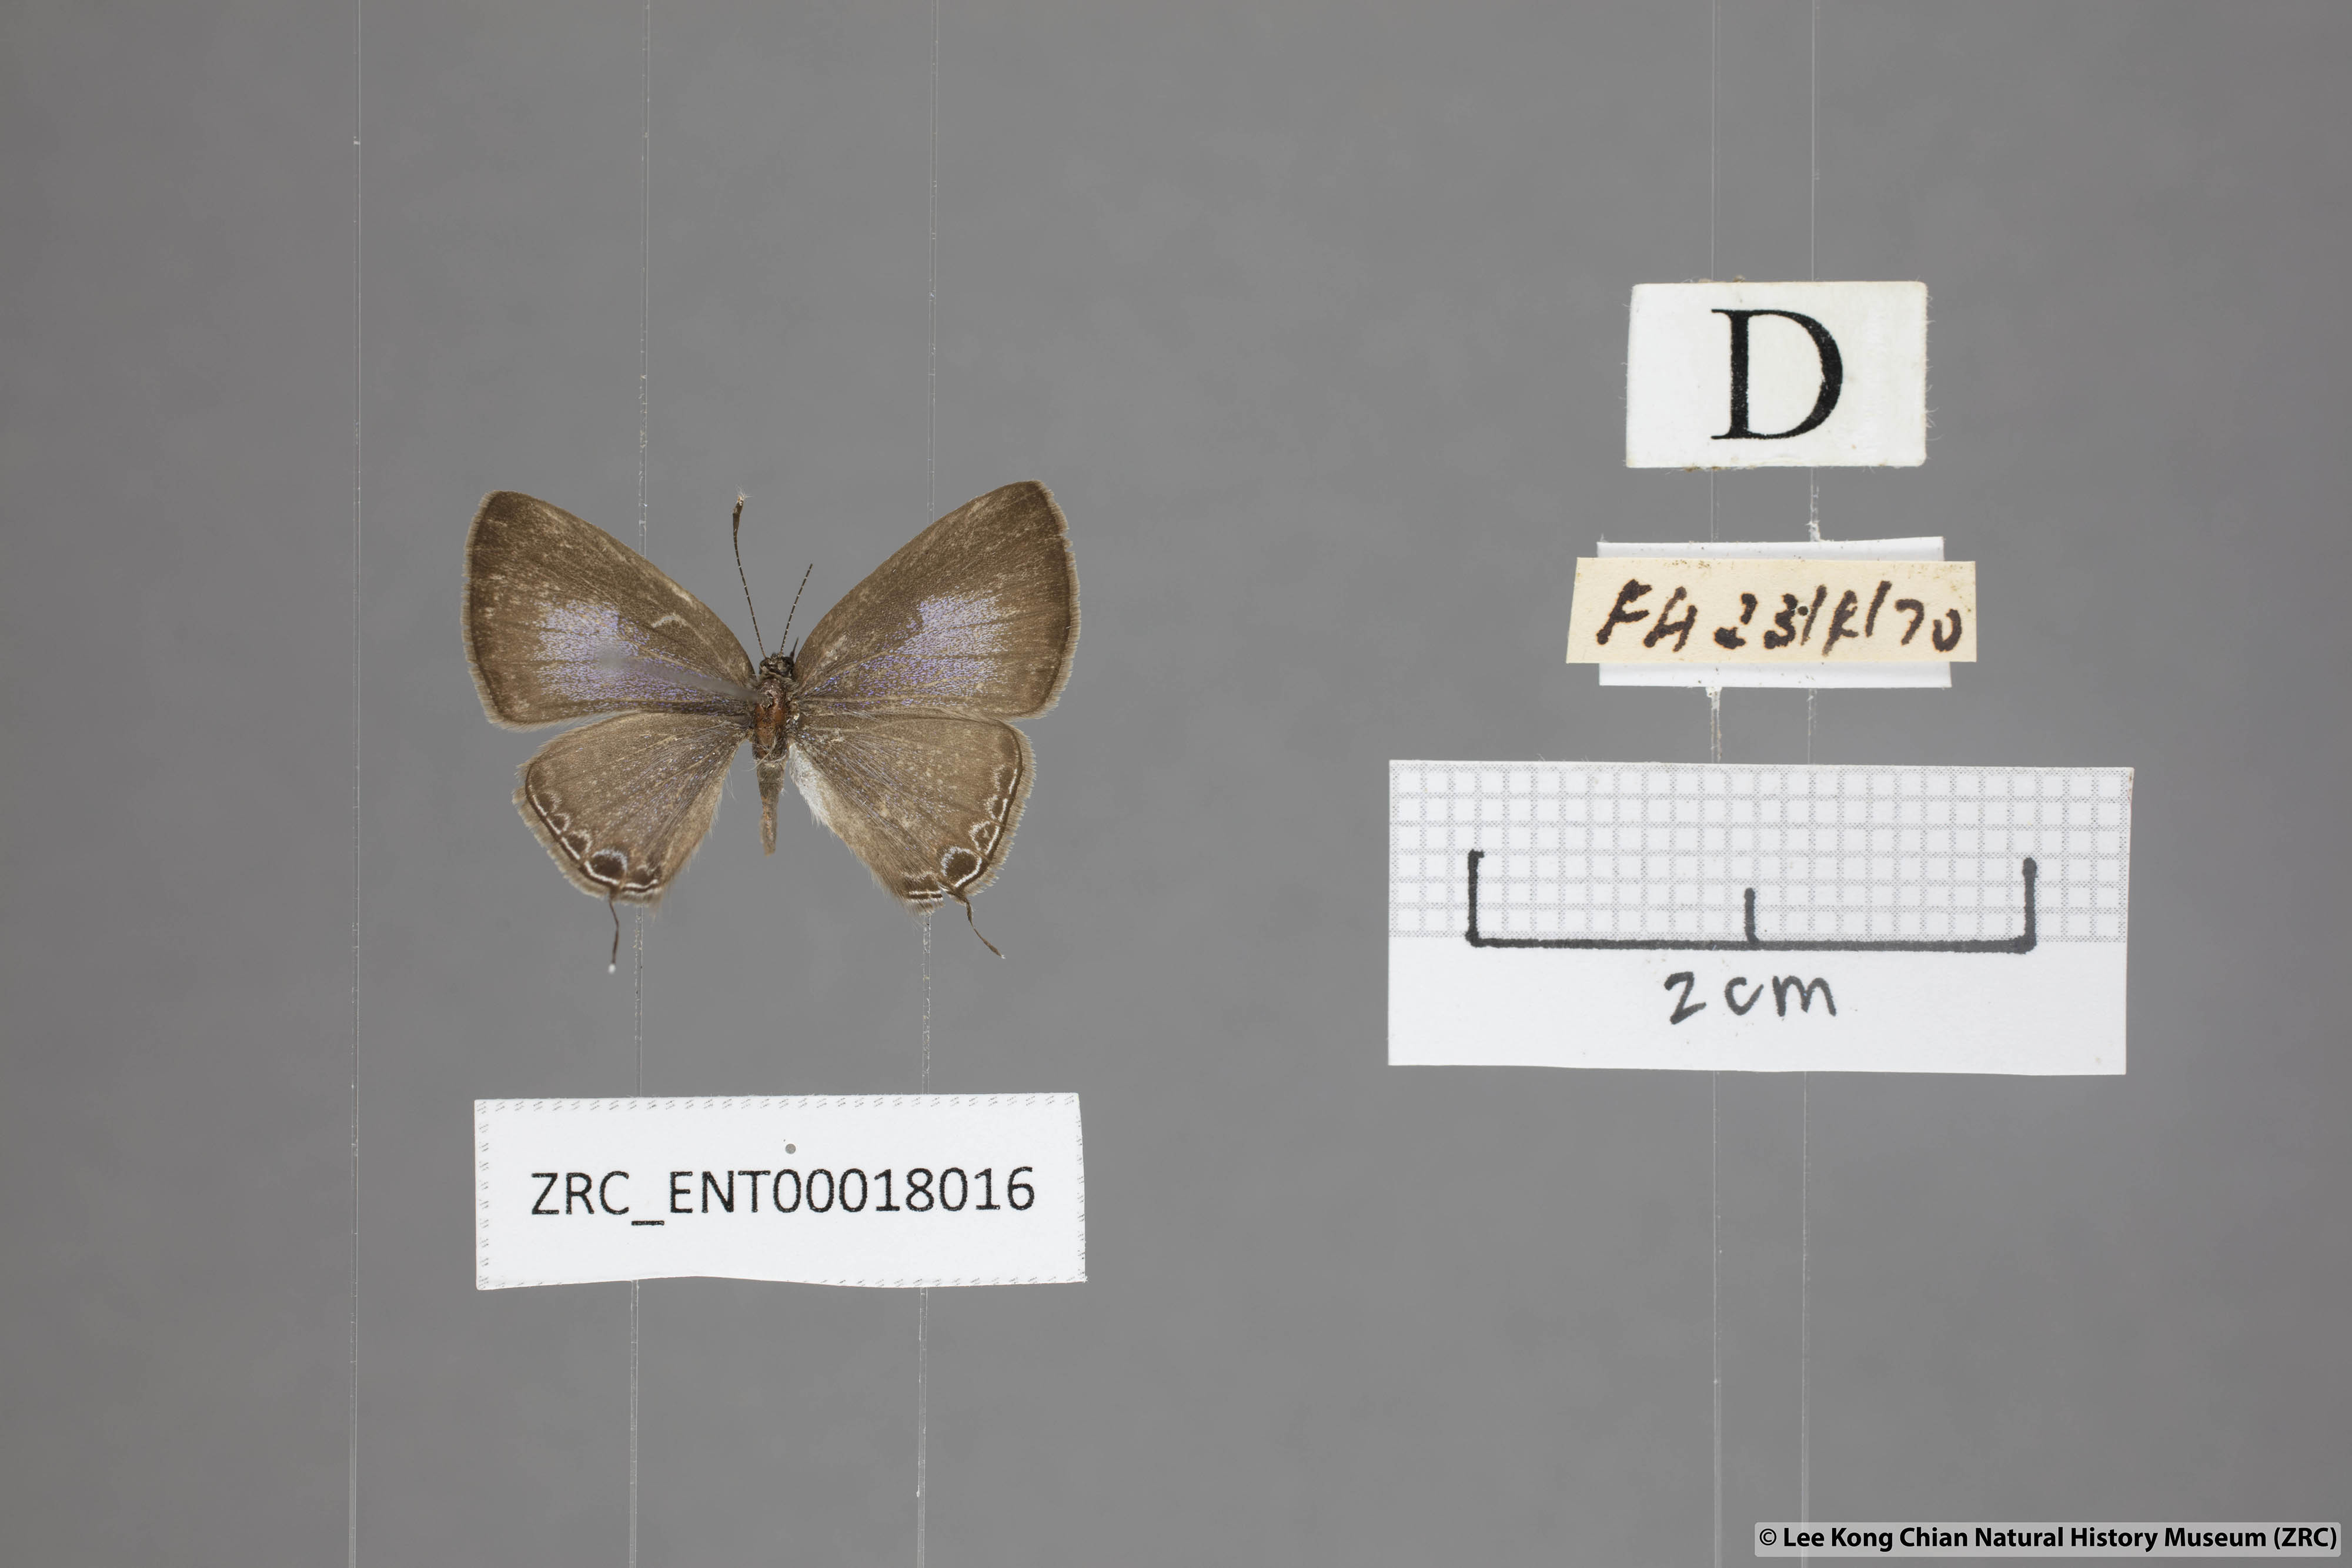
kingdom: Animalia
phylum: Arthropoda
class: Insecta
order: Lepidoptera
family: Lycaenidae
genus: Ionolyce
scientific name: Ionolyce helicon
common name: Pointed line blue
